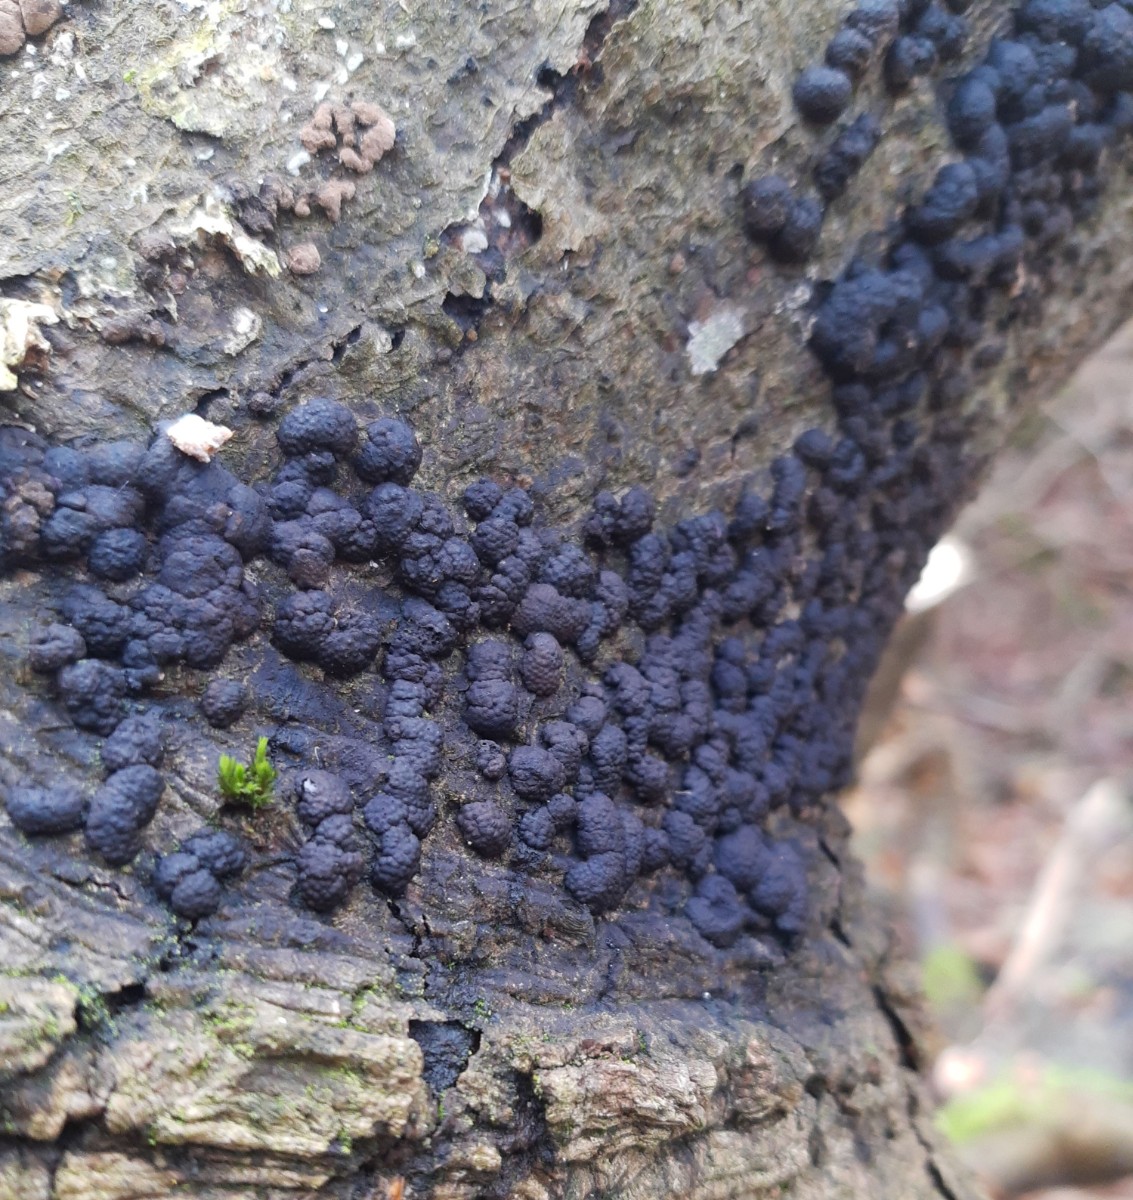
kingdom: Fungi
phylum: Ascomycota
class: Sordariomycetes
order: Xylariales
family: Hypoxylaceae
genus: Jackrogersella
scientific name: Jackrogersella cohaerens
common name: sammenflydende kulbær
